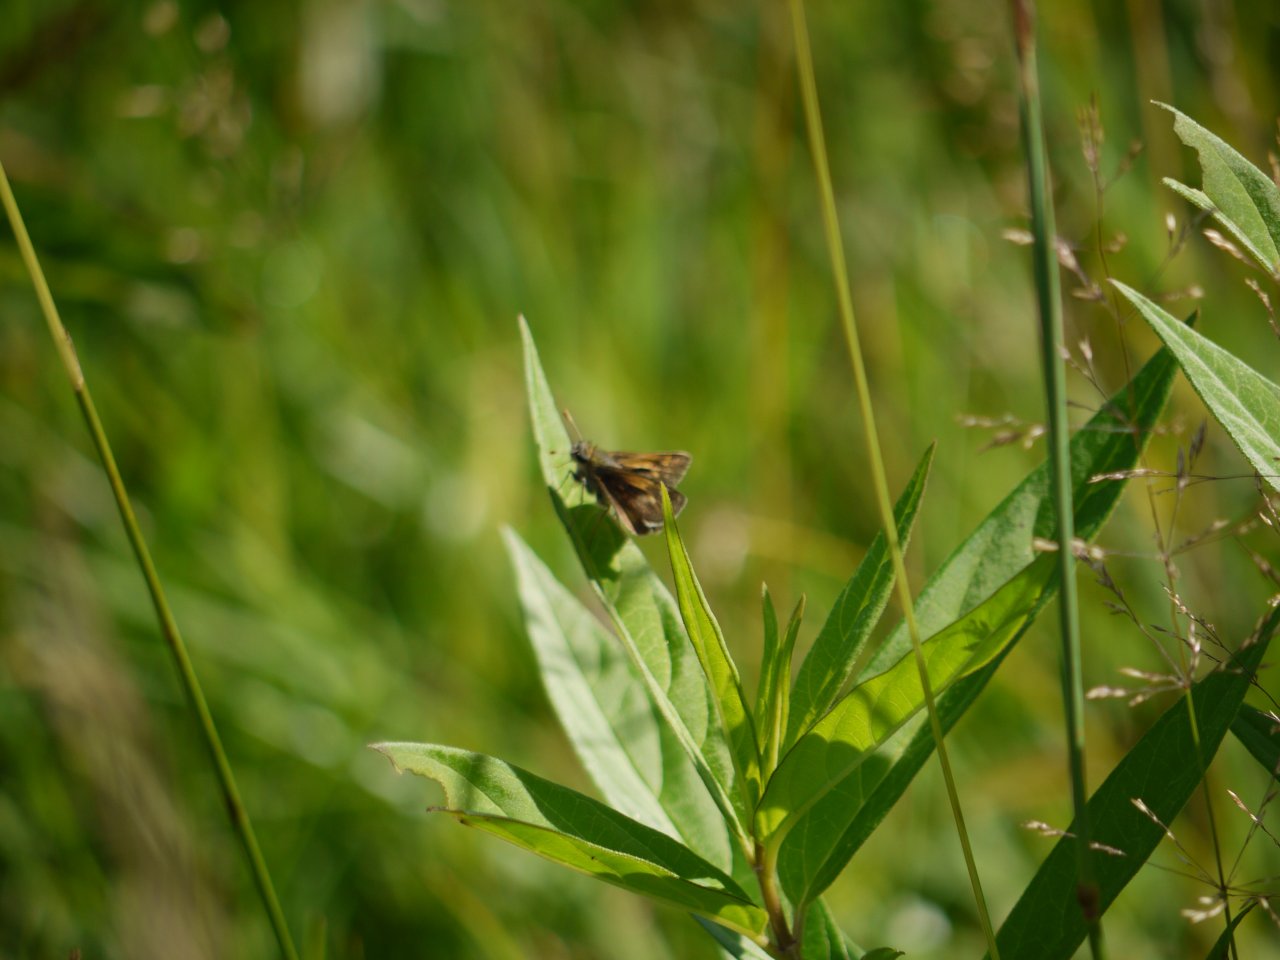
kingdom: Animalia
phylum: Arthropoda
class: Insecta
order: Lepidoptera
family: Hesperiidae
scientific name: Hesperiidae
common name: Skippers
